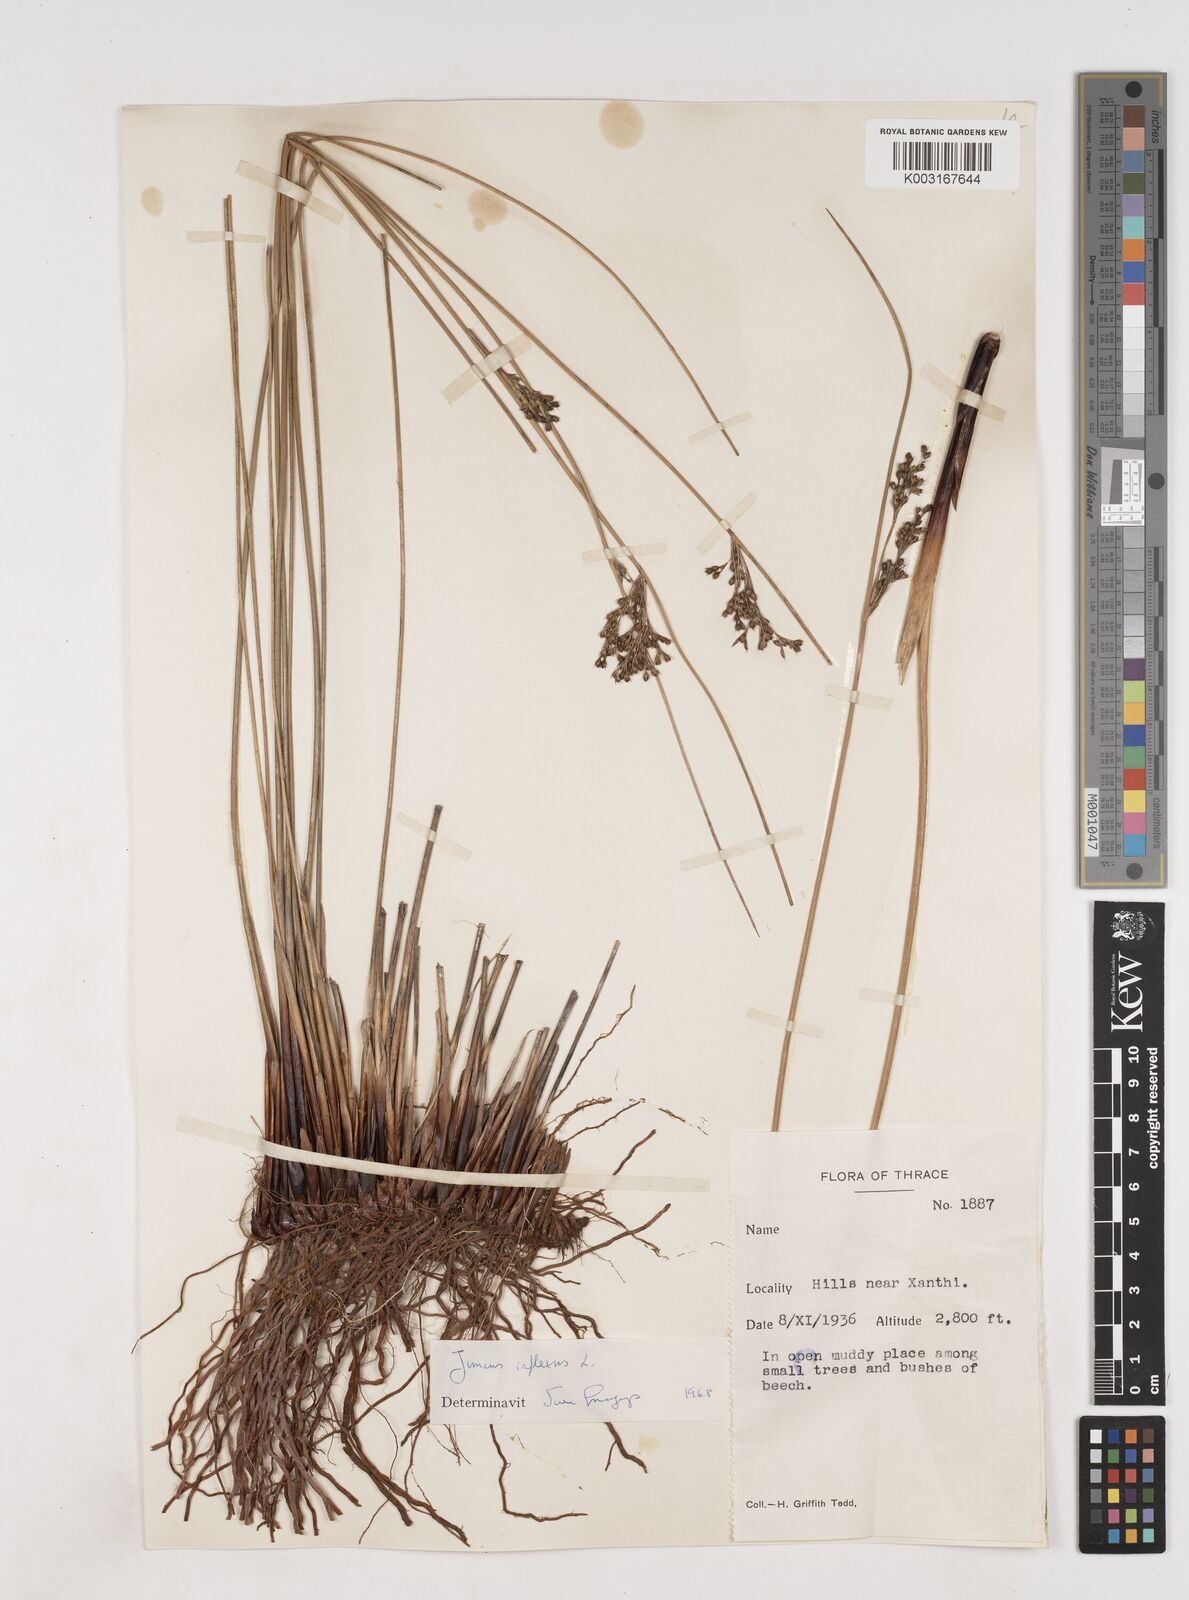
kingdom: Plantae
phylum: Tracheophyta
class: Liliopsida
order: Poales
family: Juncaceae
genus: Juncus
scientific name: Juncus inflexus
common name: Hard rush
